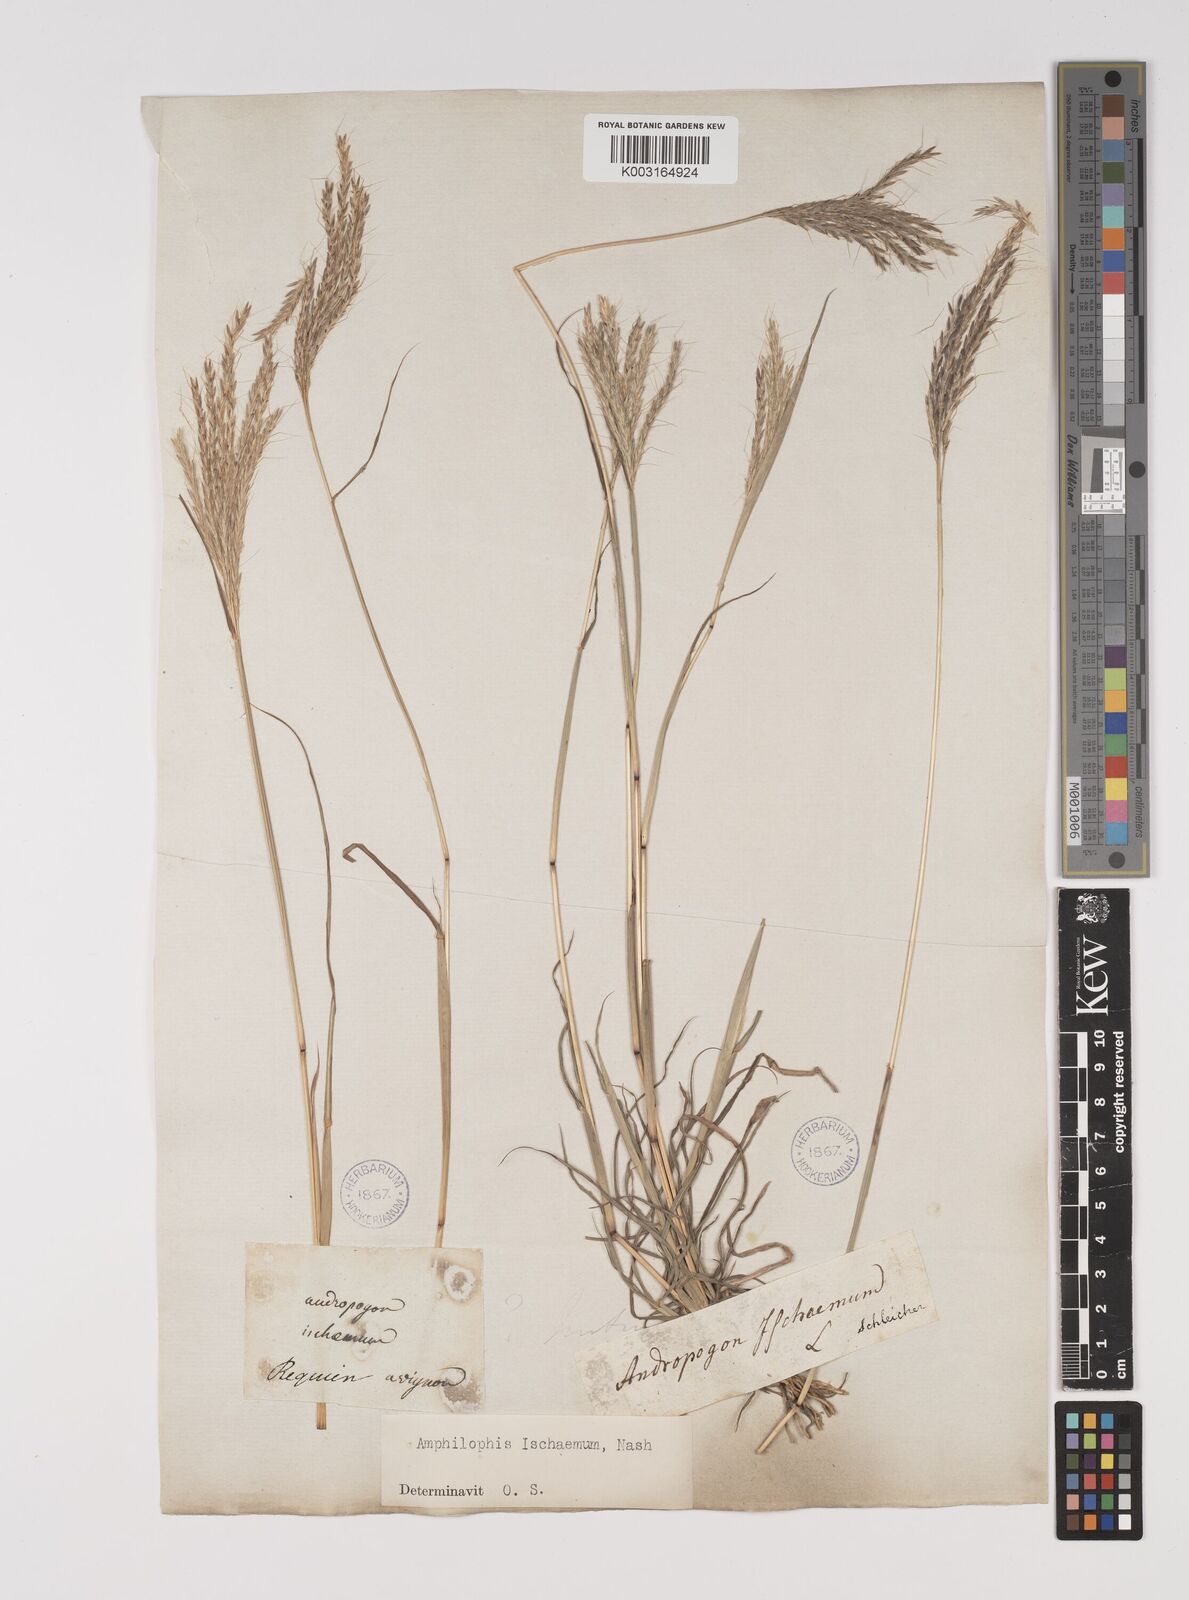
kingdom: Plantae
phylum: Tracheophyta
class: Liliopsida
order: Poales
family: Poaceae
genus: Bothriochloa
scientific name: Bothriochloa ischaemum
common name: Yellow bluestem
